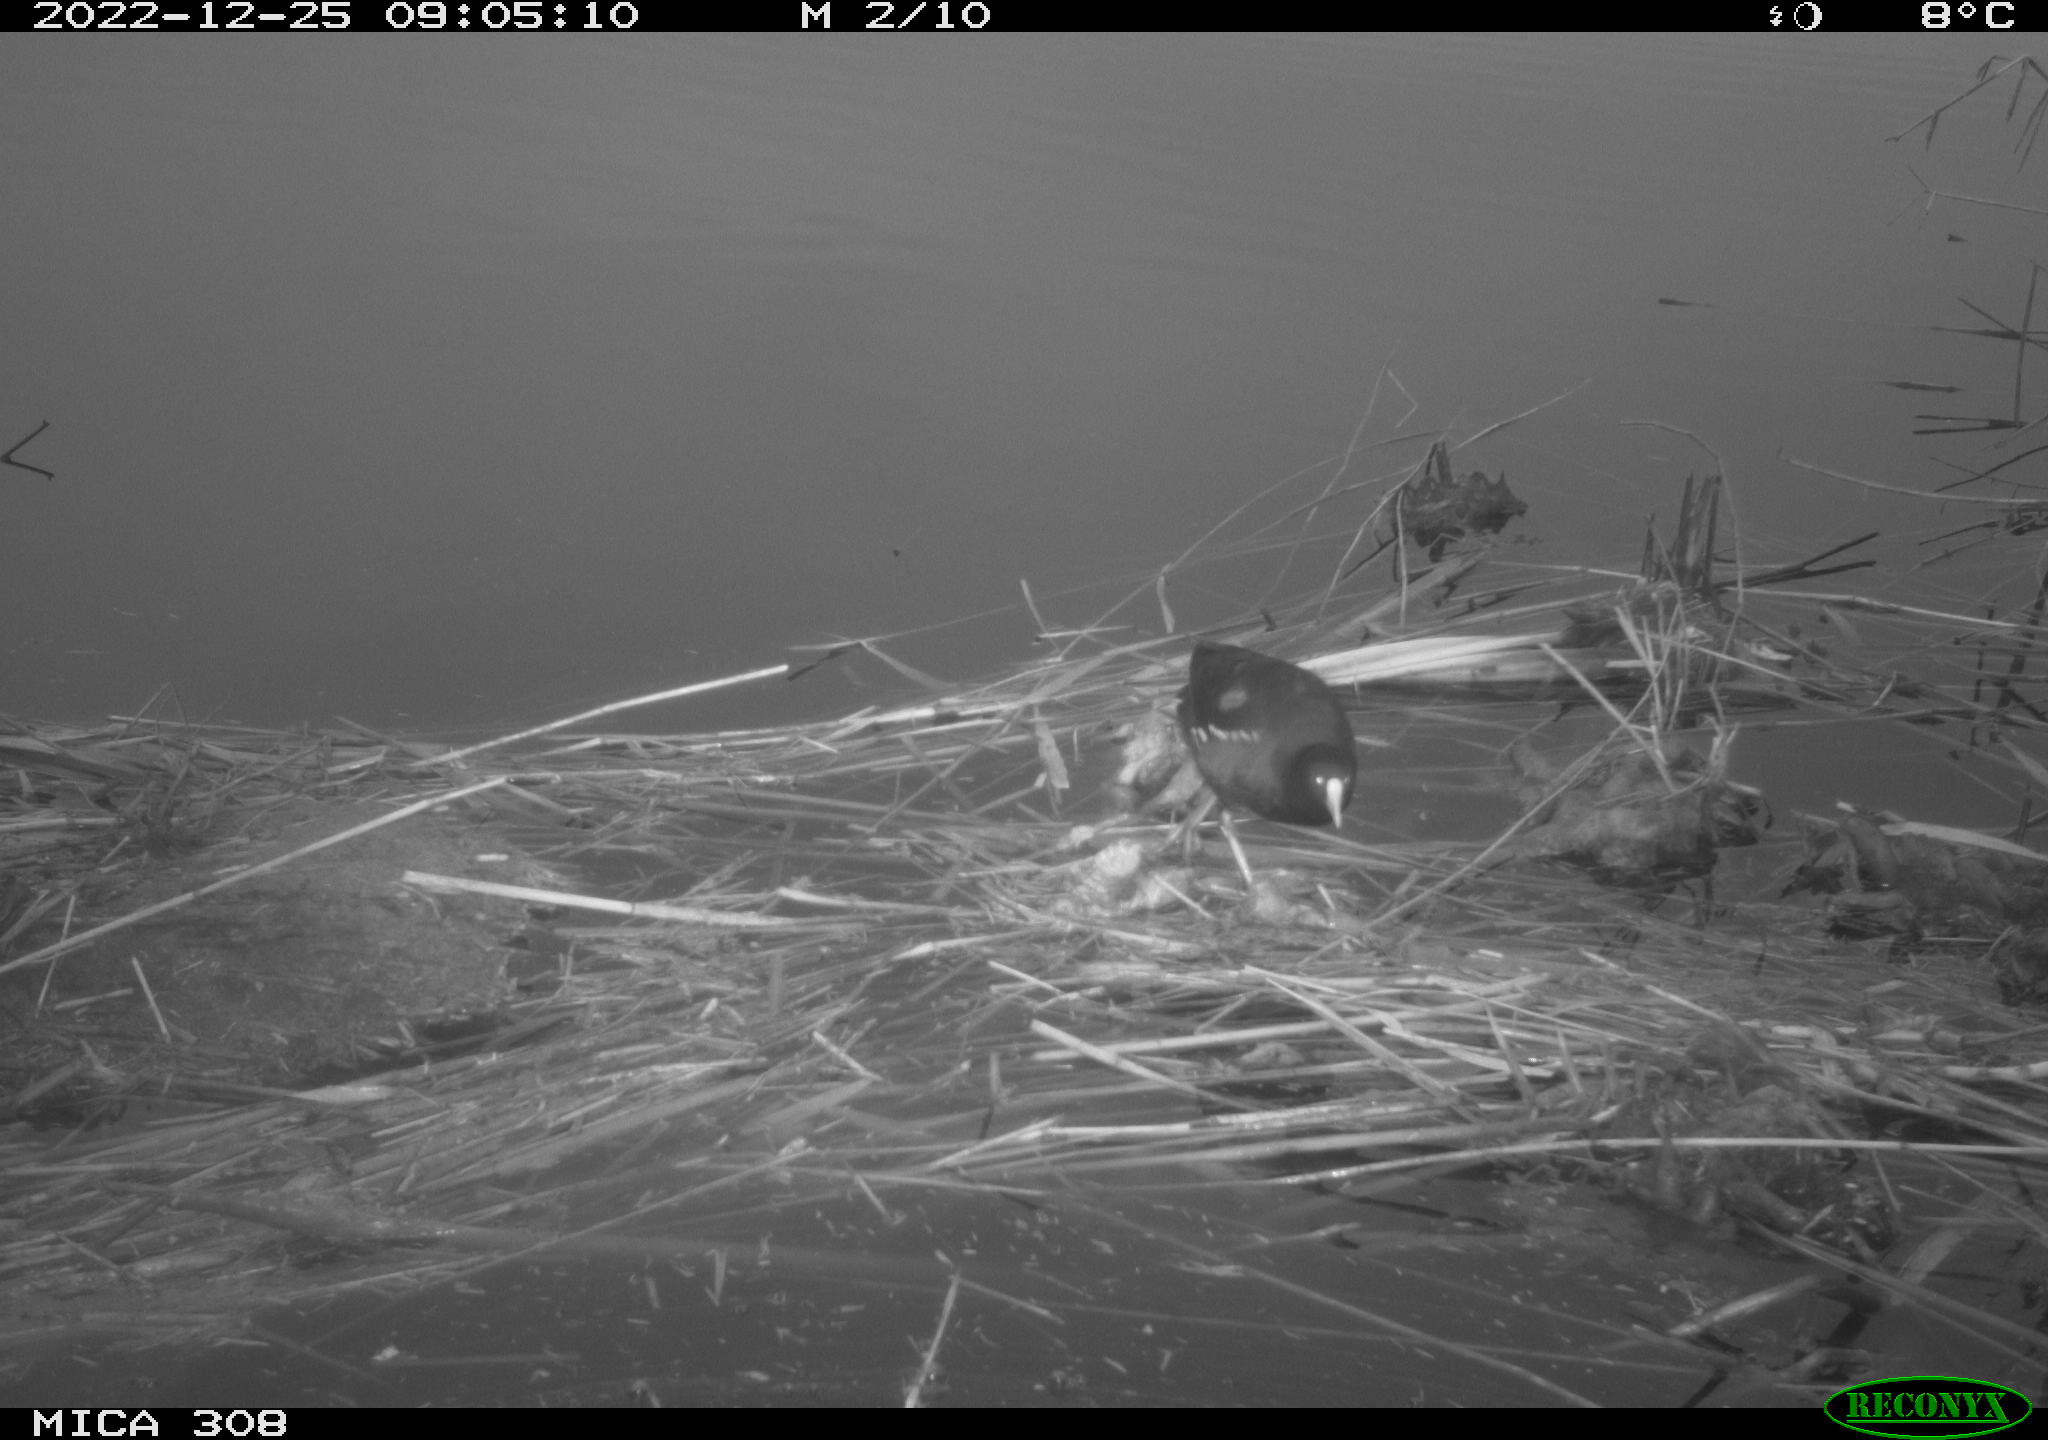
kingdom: Animalia
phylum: Chordata
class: Aves
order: Gruiformes
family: Rallidae
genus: Gallinula
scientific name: Gallinula chloropus
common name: Common moorhen
